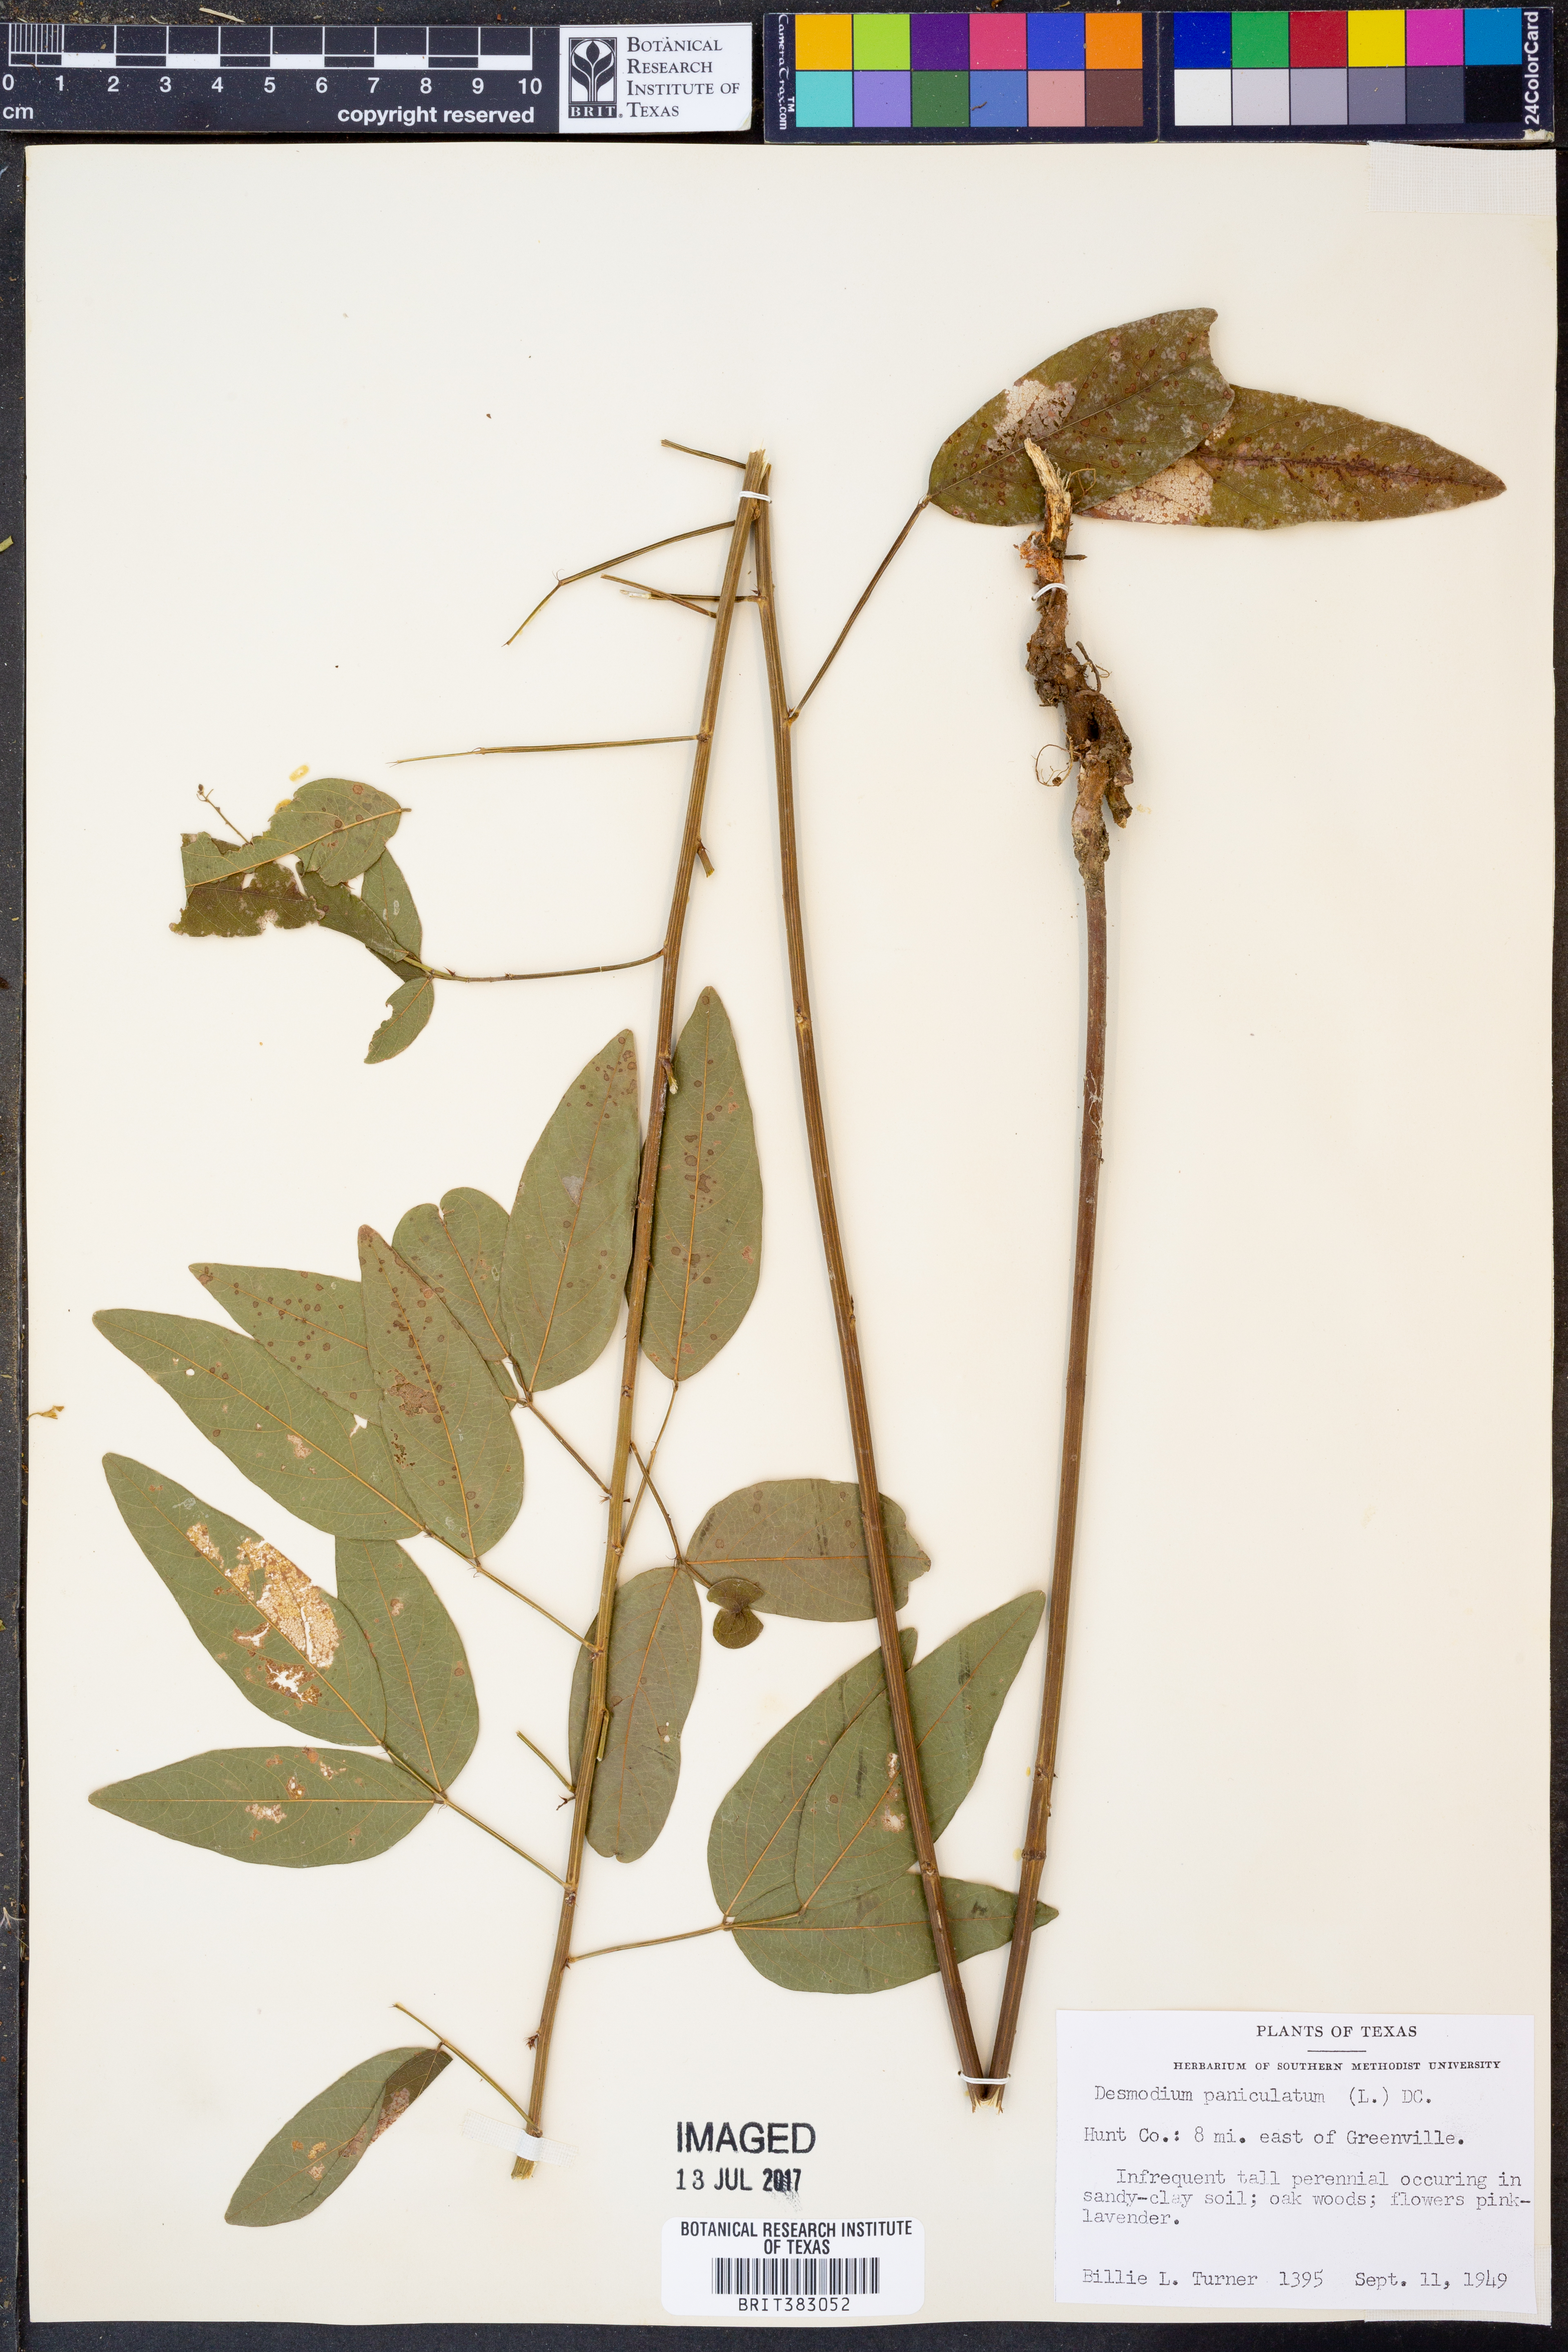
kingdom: Plantae
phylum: Tracheophyta
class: Magnoliopsida
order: Fabales
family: Fabaceae
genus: Desmodium
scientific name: Desmodium paniculatum
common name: Panicled tick-clover
